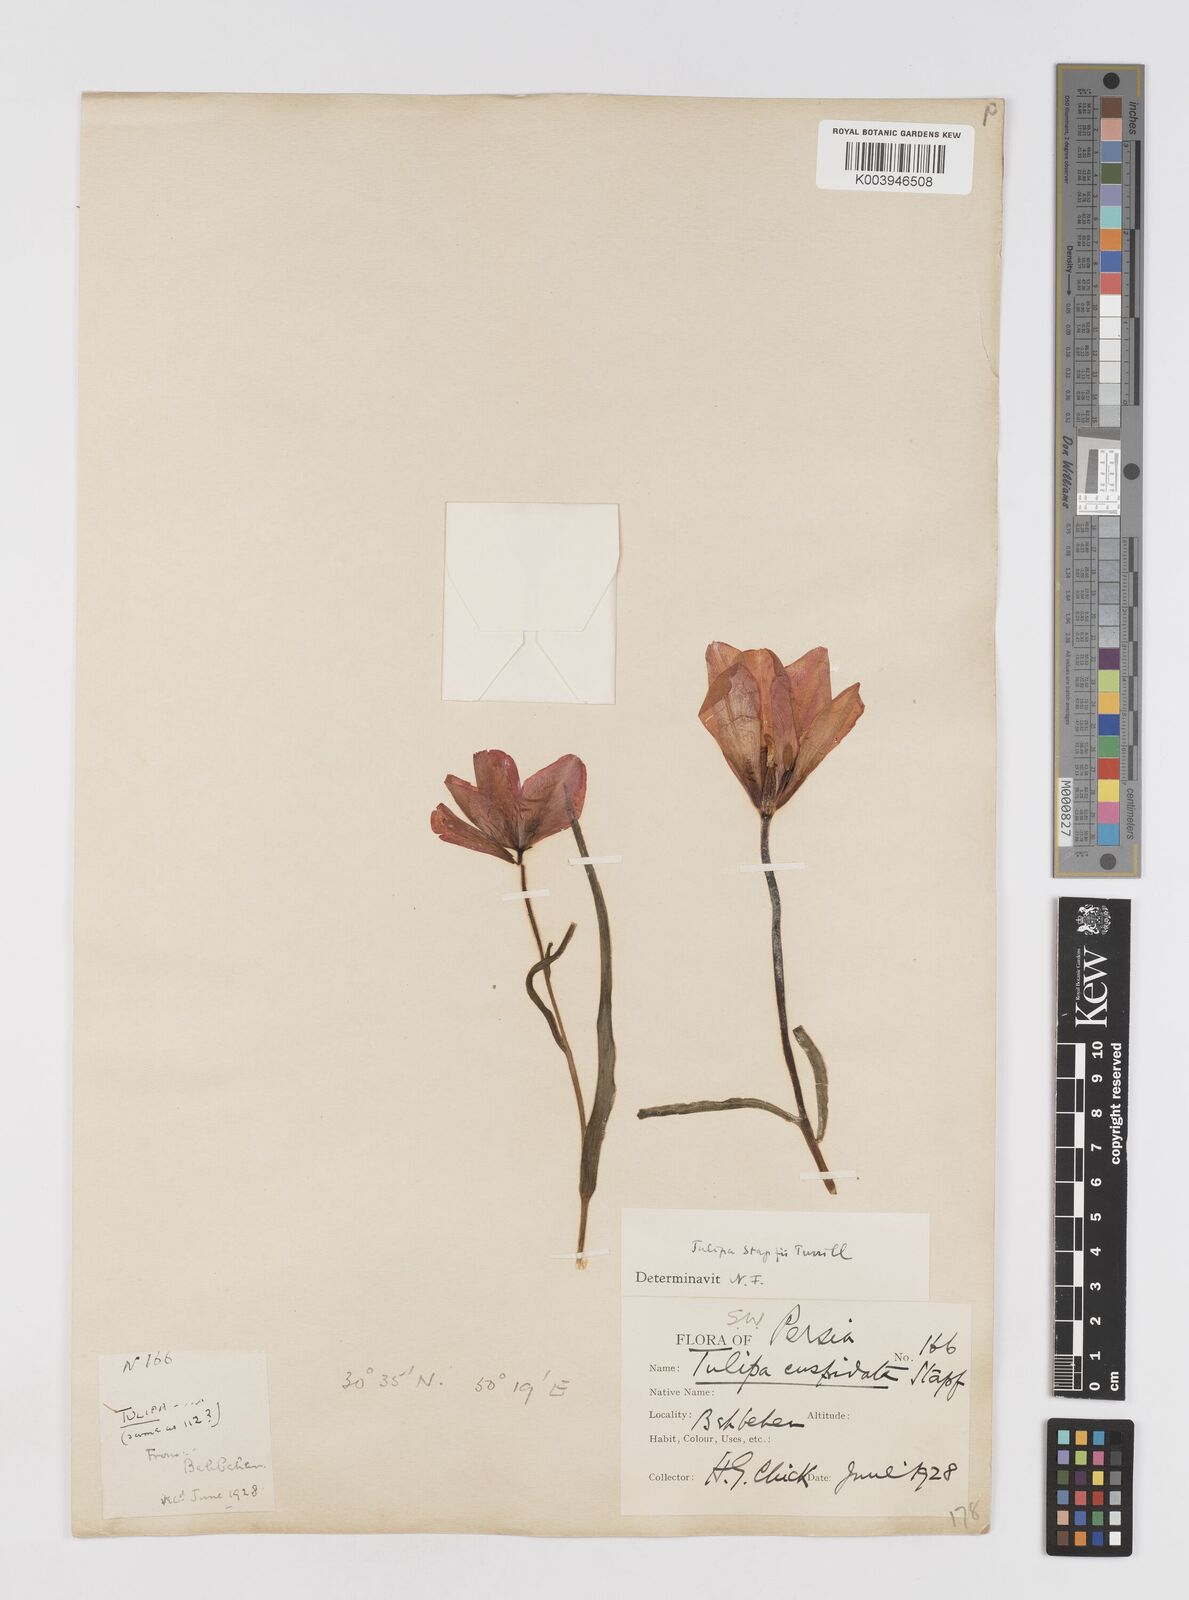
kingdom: Plantae
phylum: Tracheophyta
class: Liliopsida
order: Liliales
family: Liliaceae
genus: Tulipa
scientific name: Tulipa systola
